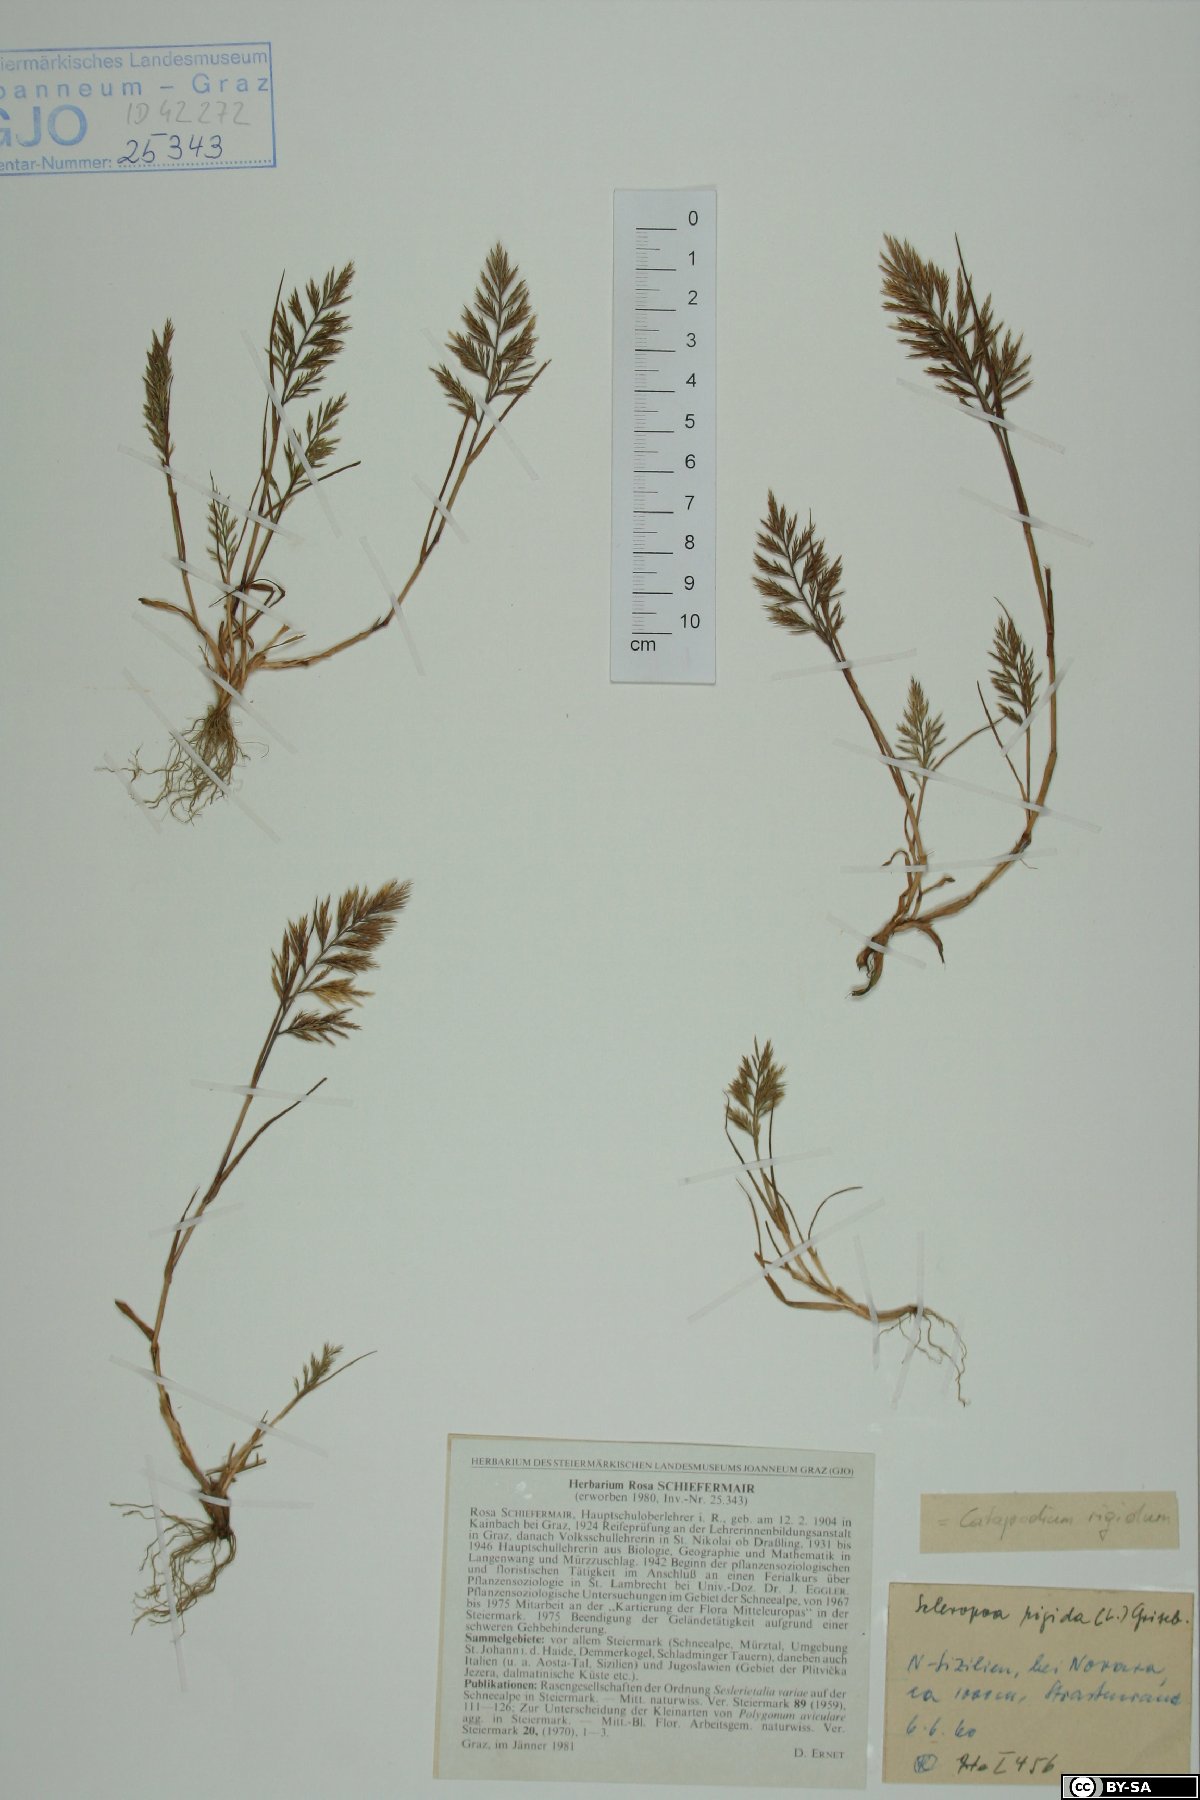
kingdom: Plantae
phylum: Tracheophyta
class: Liliopsida
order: Poales
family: Poaceae
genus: Catapodium
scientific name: Catapodium rigidum
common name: Fern-grass
